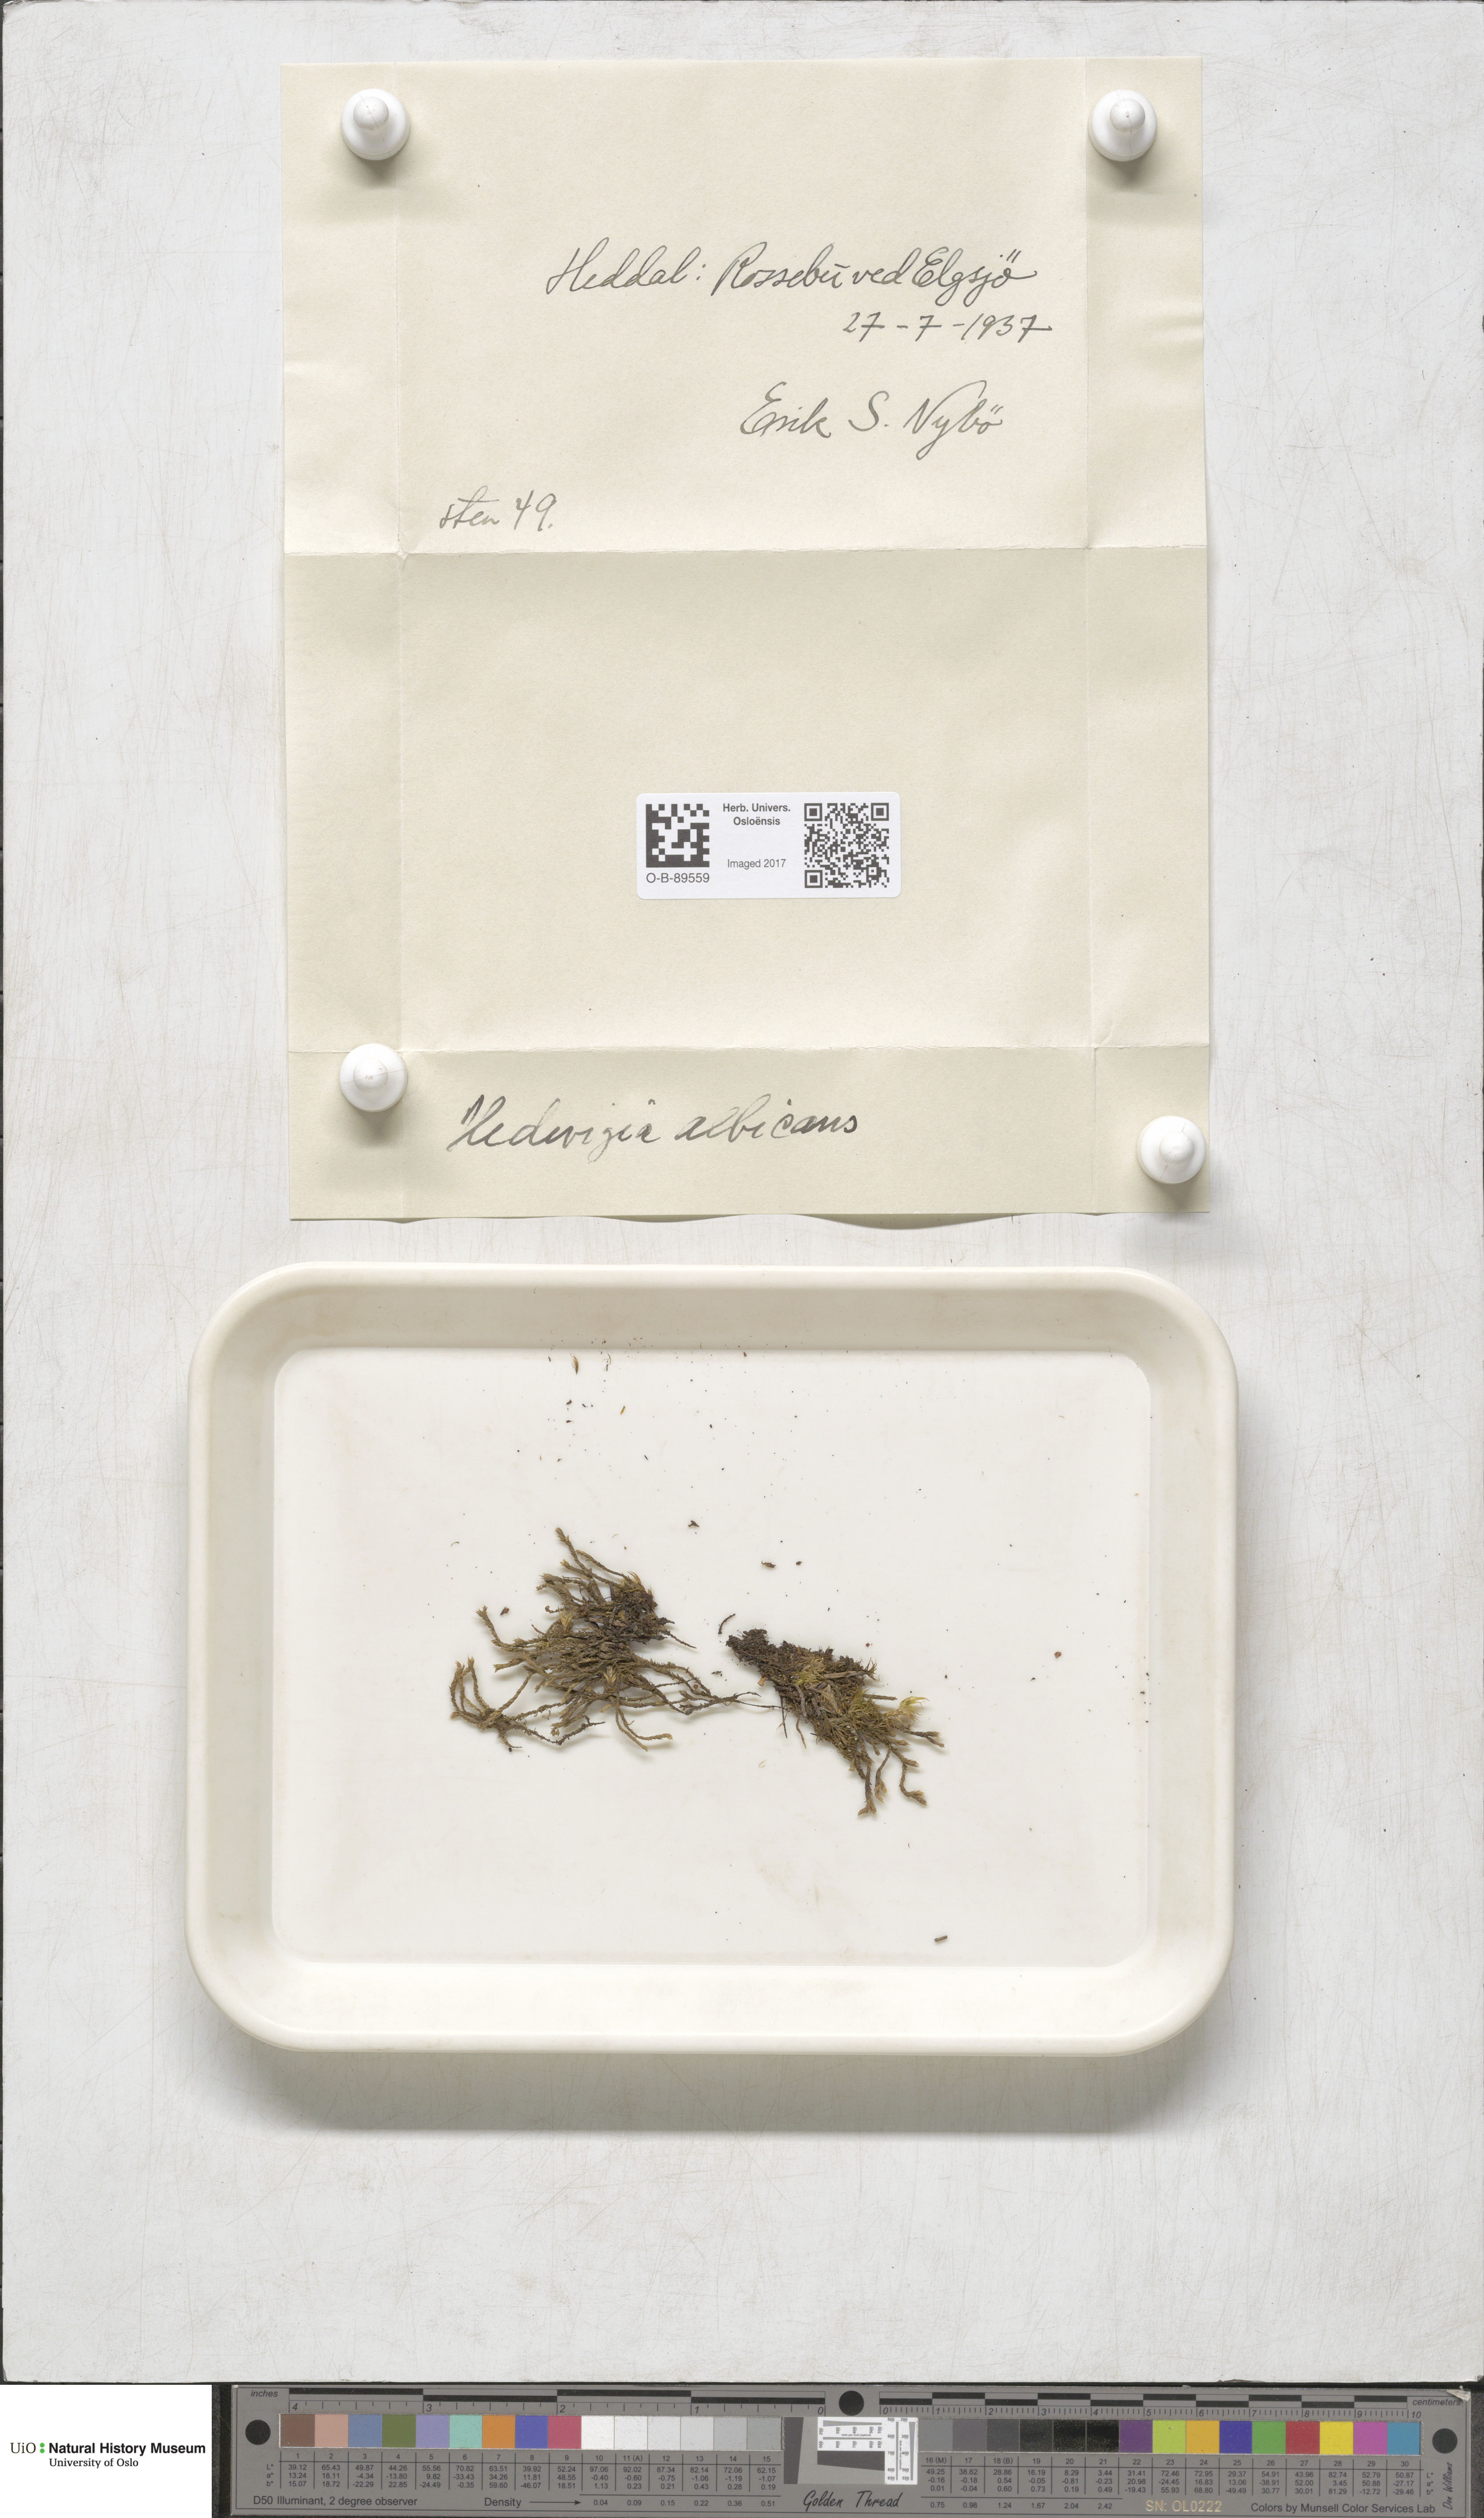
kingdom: Plantae
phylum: Bryophyta
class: Bryopsida
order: Hedwigiales
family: Hedwigiaceae
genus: Hedwigia
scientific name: Hedwigia ciliata
